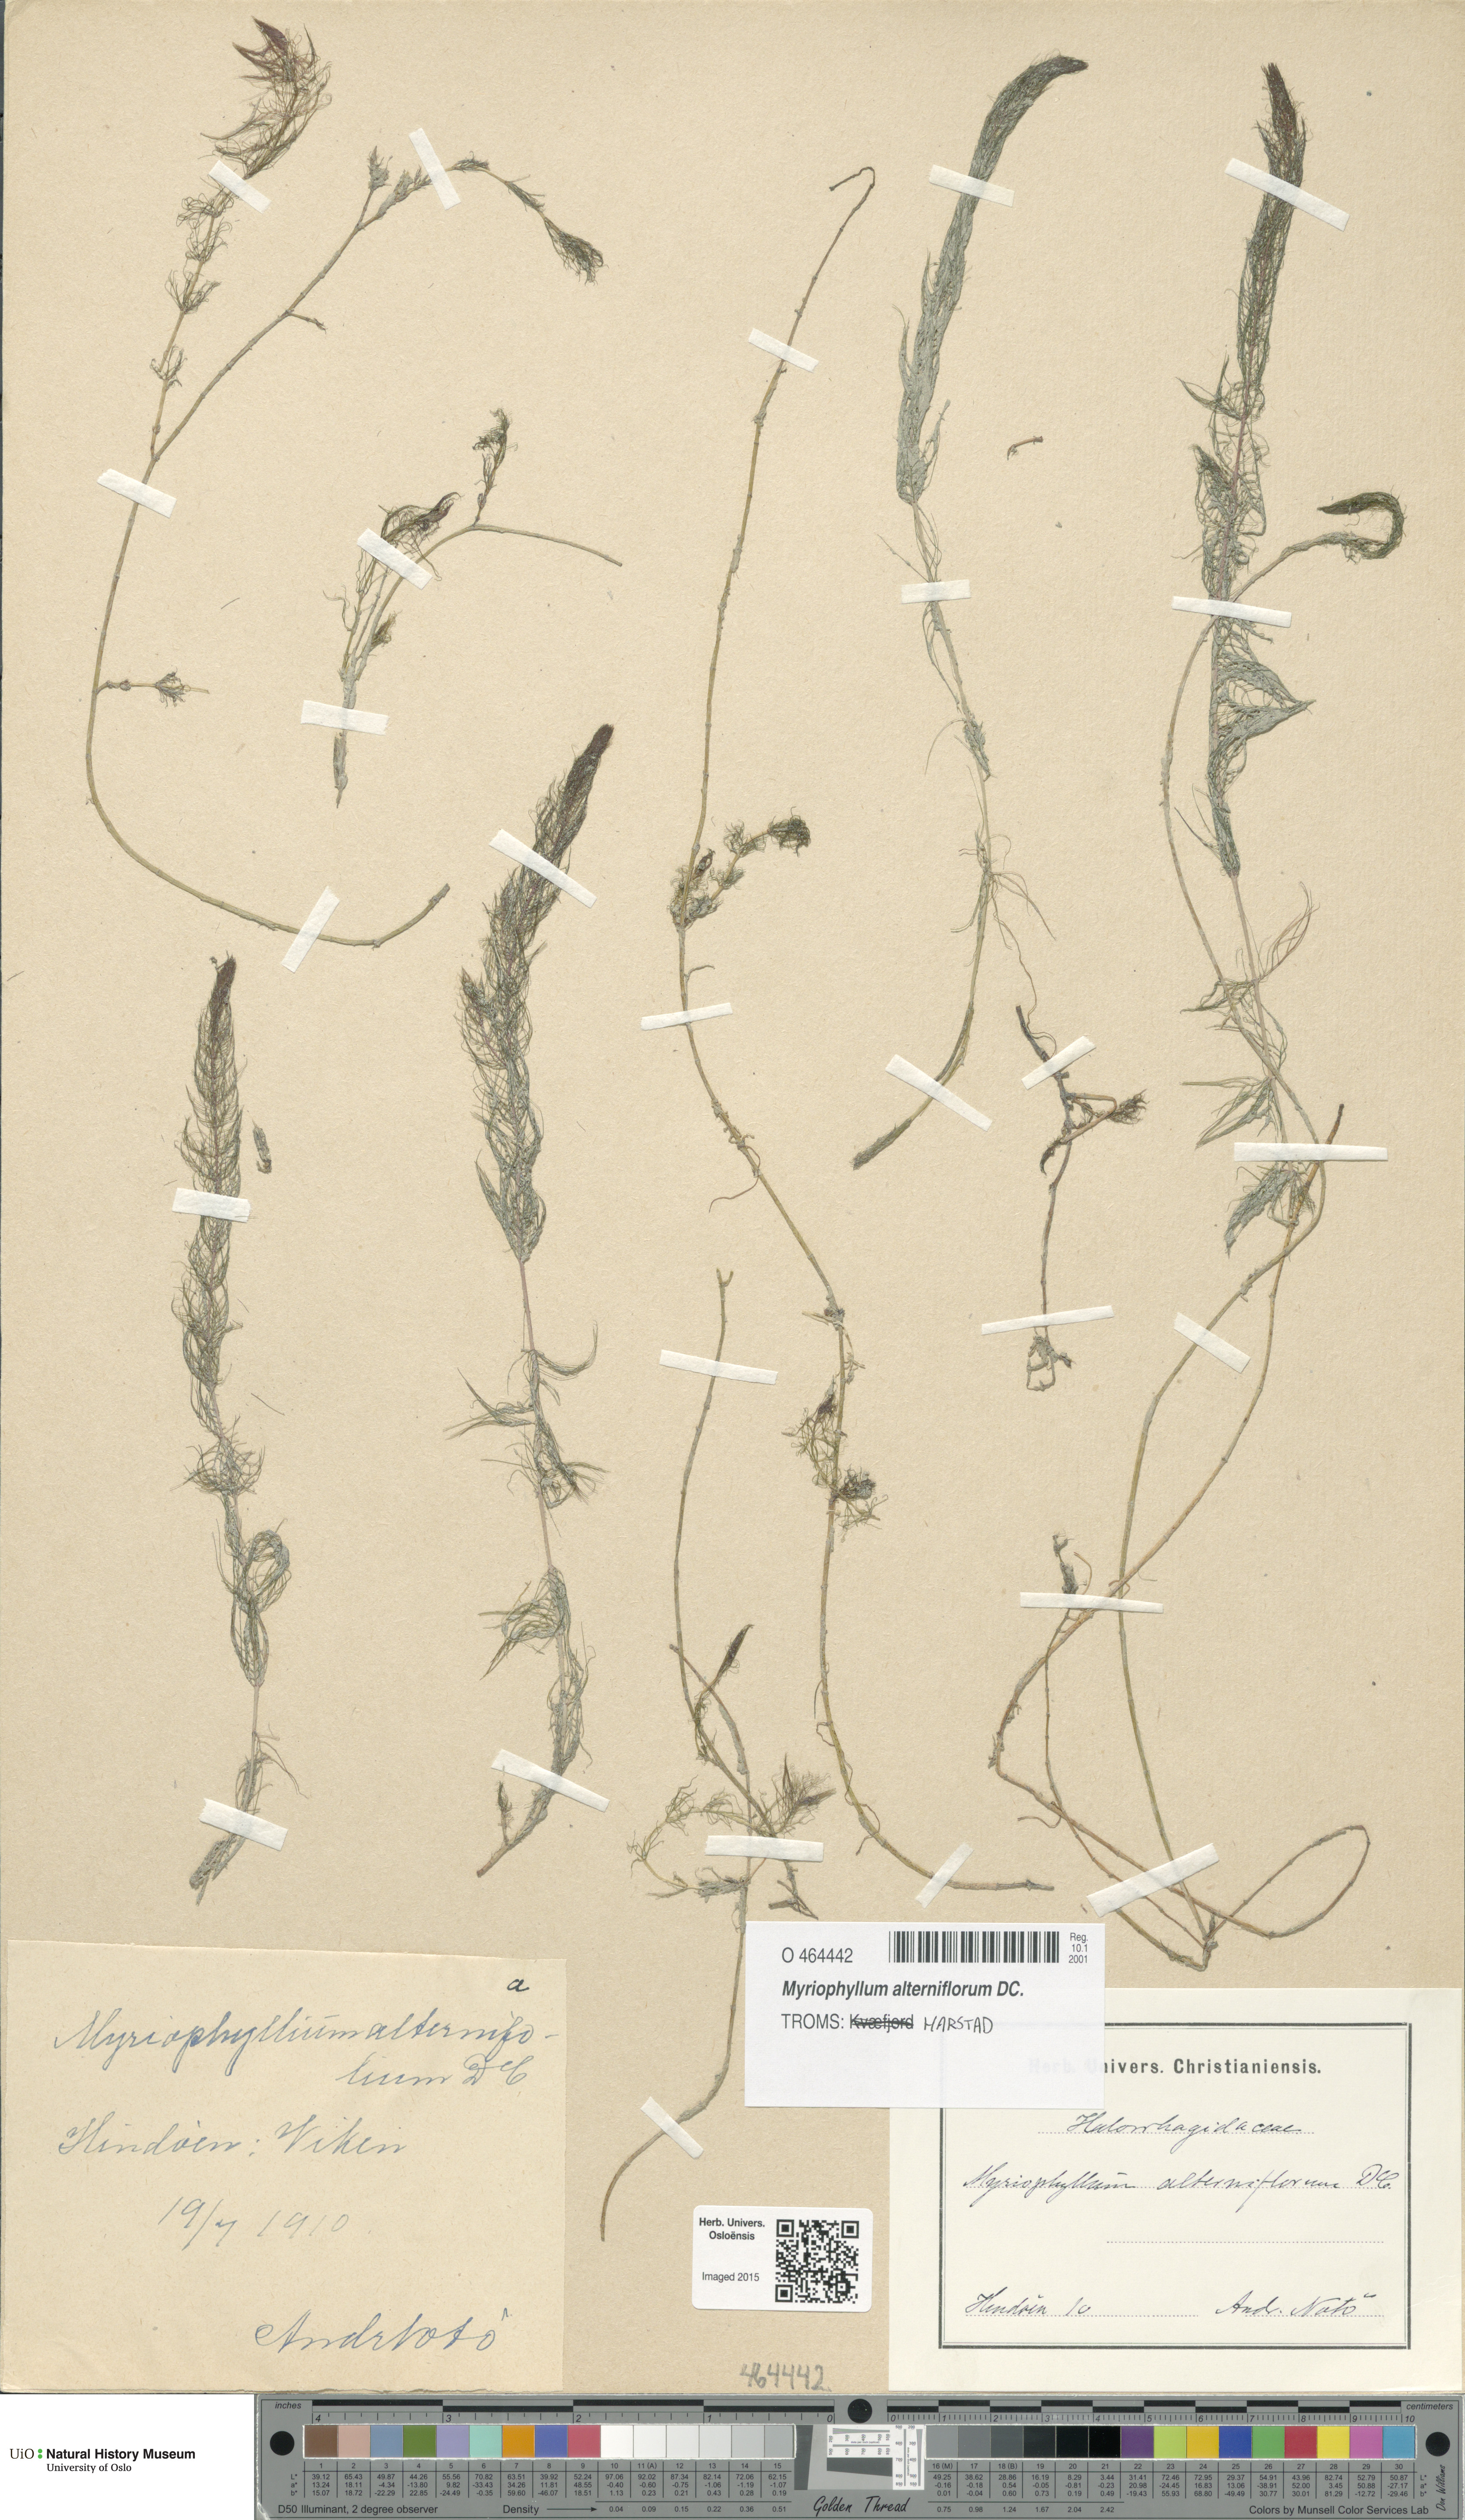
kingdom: Plantae
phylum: Tracheophyta
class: Magnoliopsida
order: Saxifragales
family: Haloragaceae
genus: Myriophyllum
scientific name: Myriophyllum alterniflorum
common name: Alternate water-milfoil
